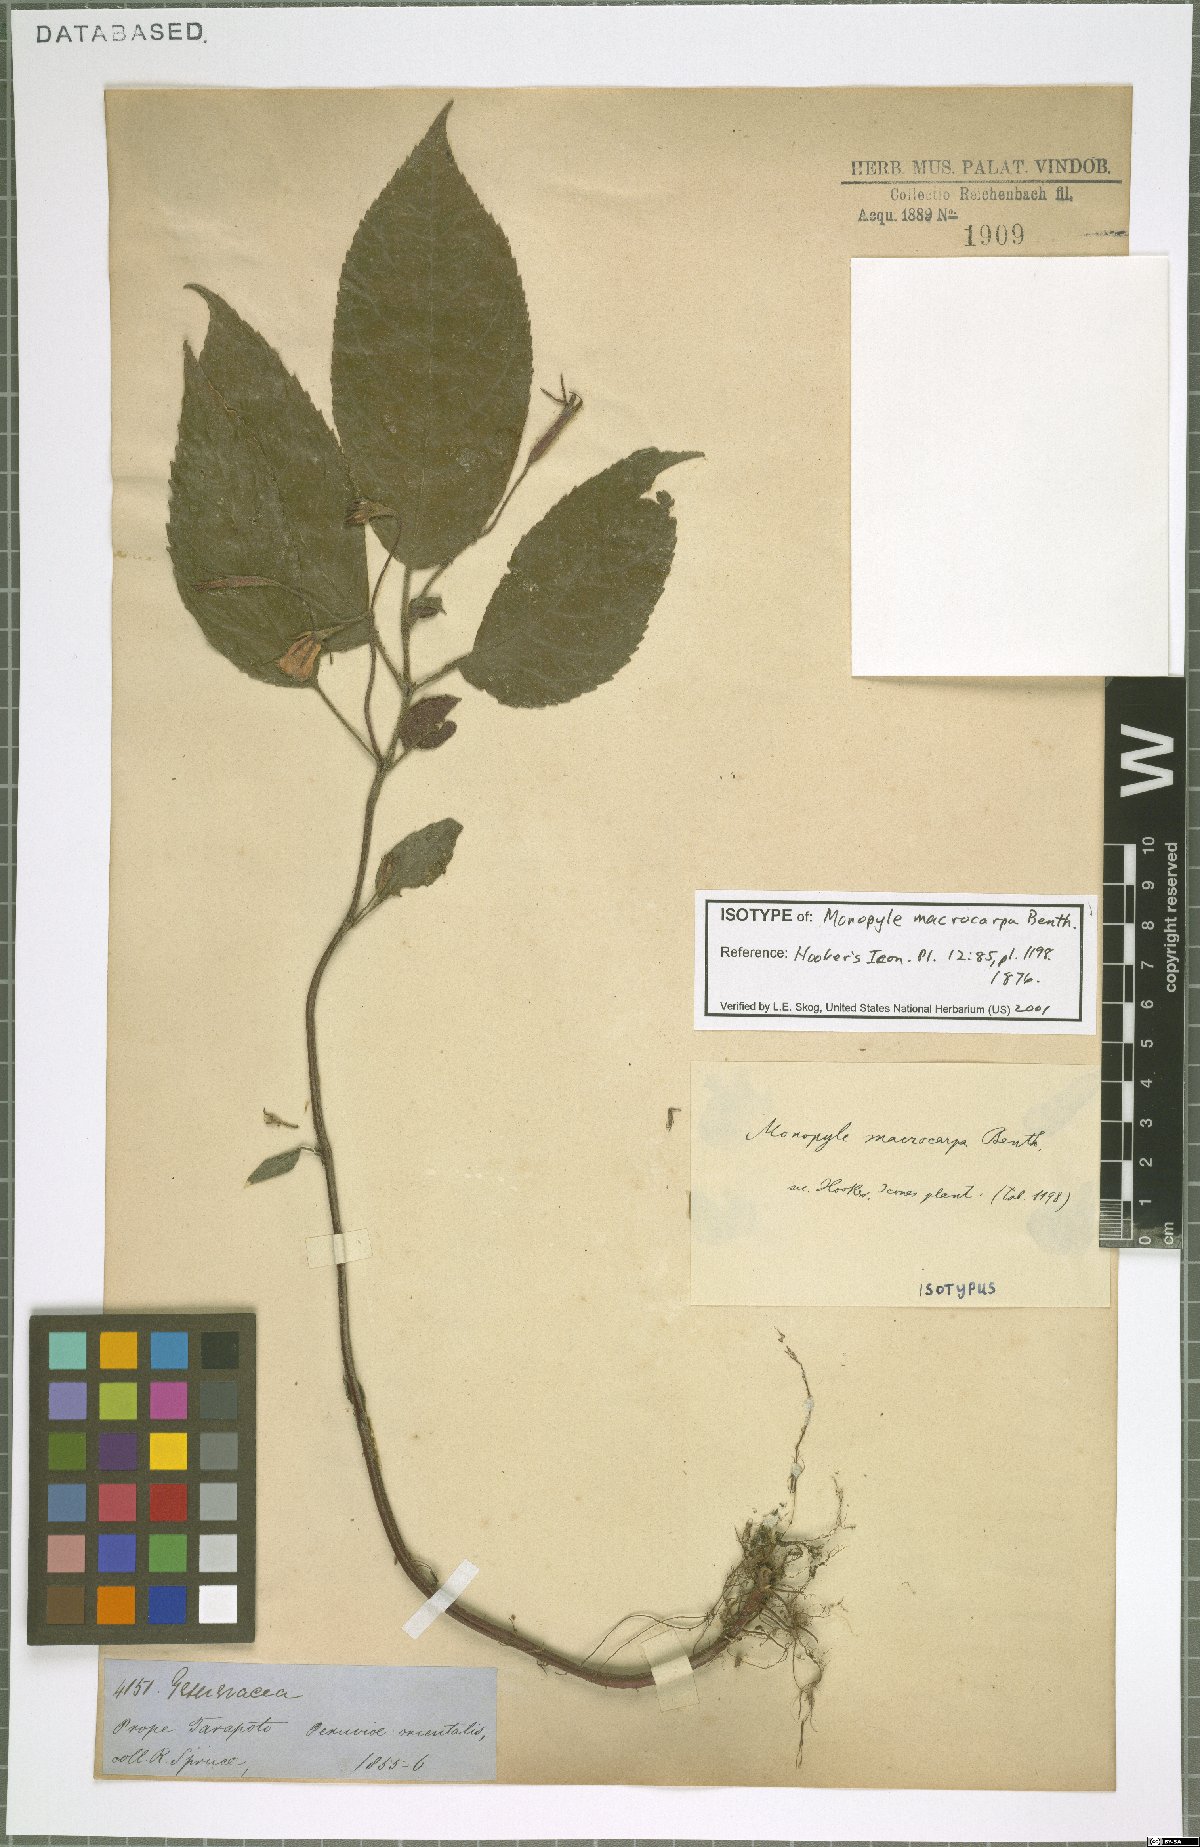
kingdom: Plantae
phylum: Tracheophyta
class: Magnoliopsida
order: Lamiales
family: Gesneriaceae
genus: Monopyle
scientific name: Monopyle macrocarpa
